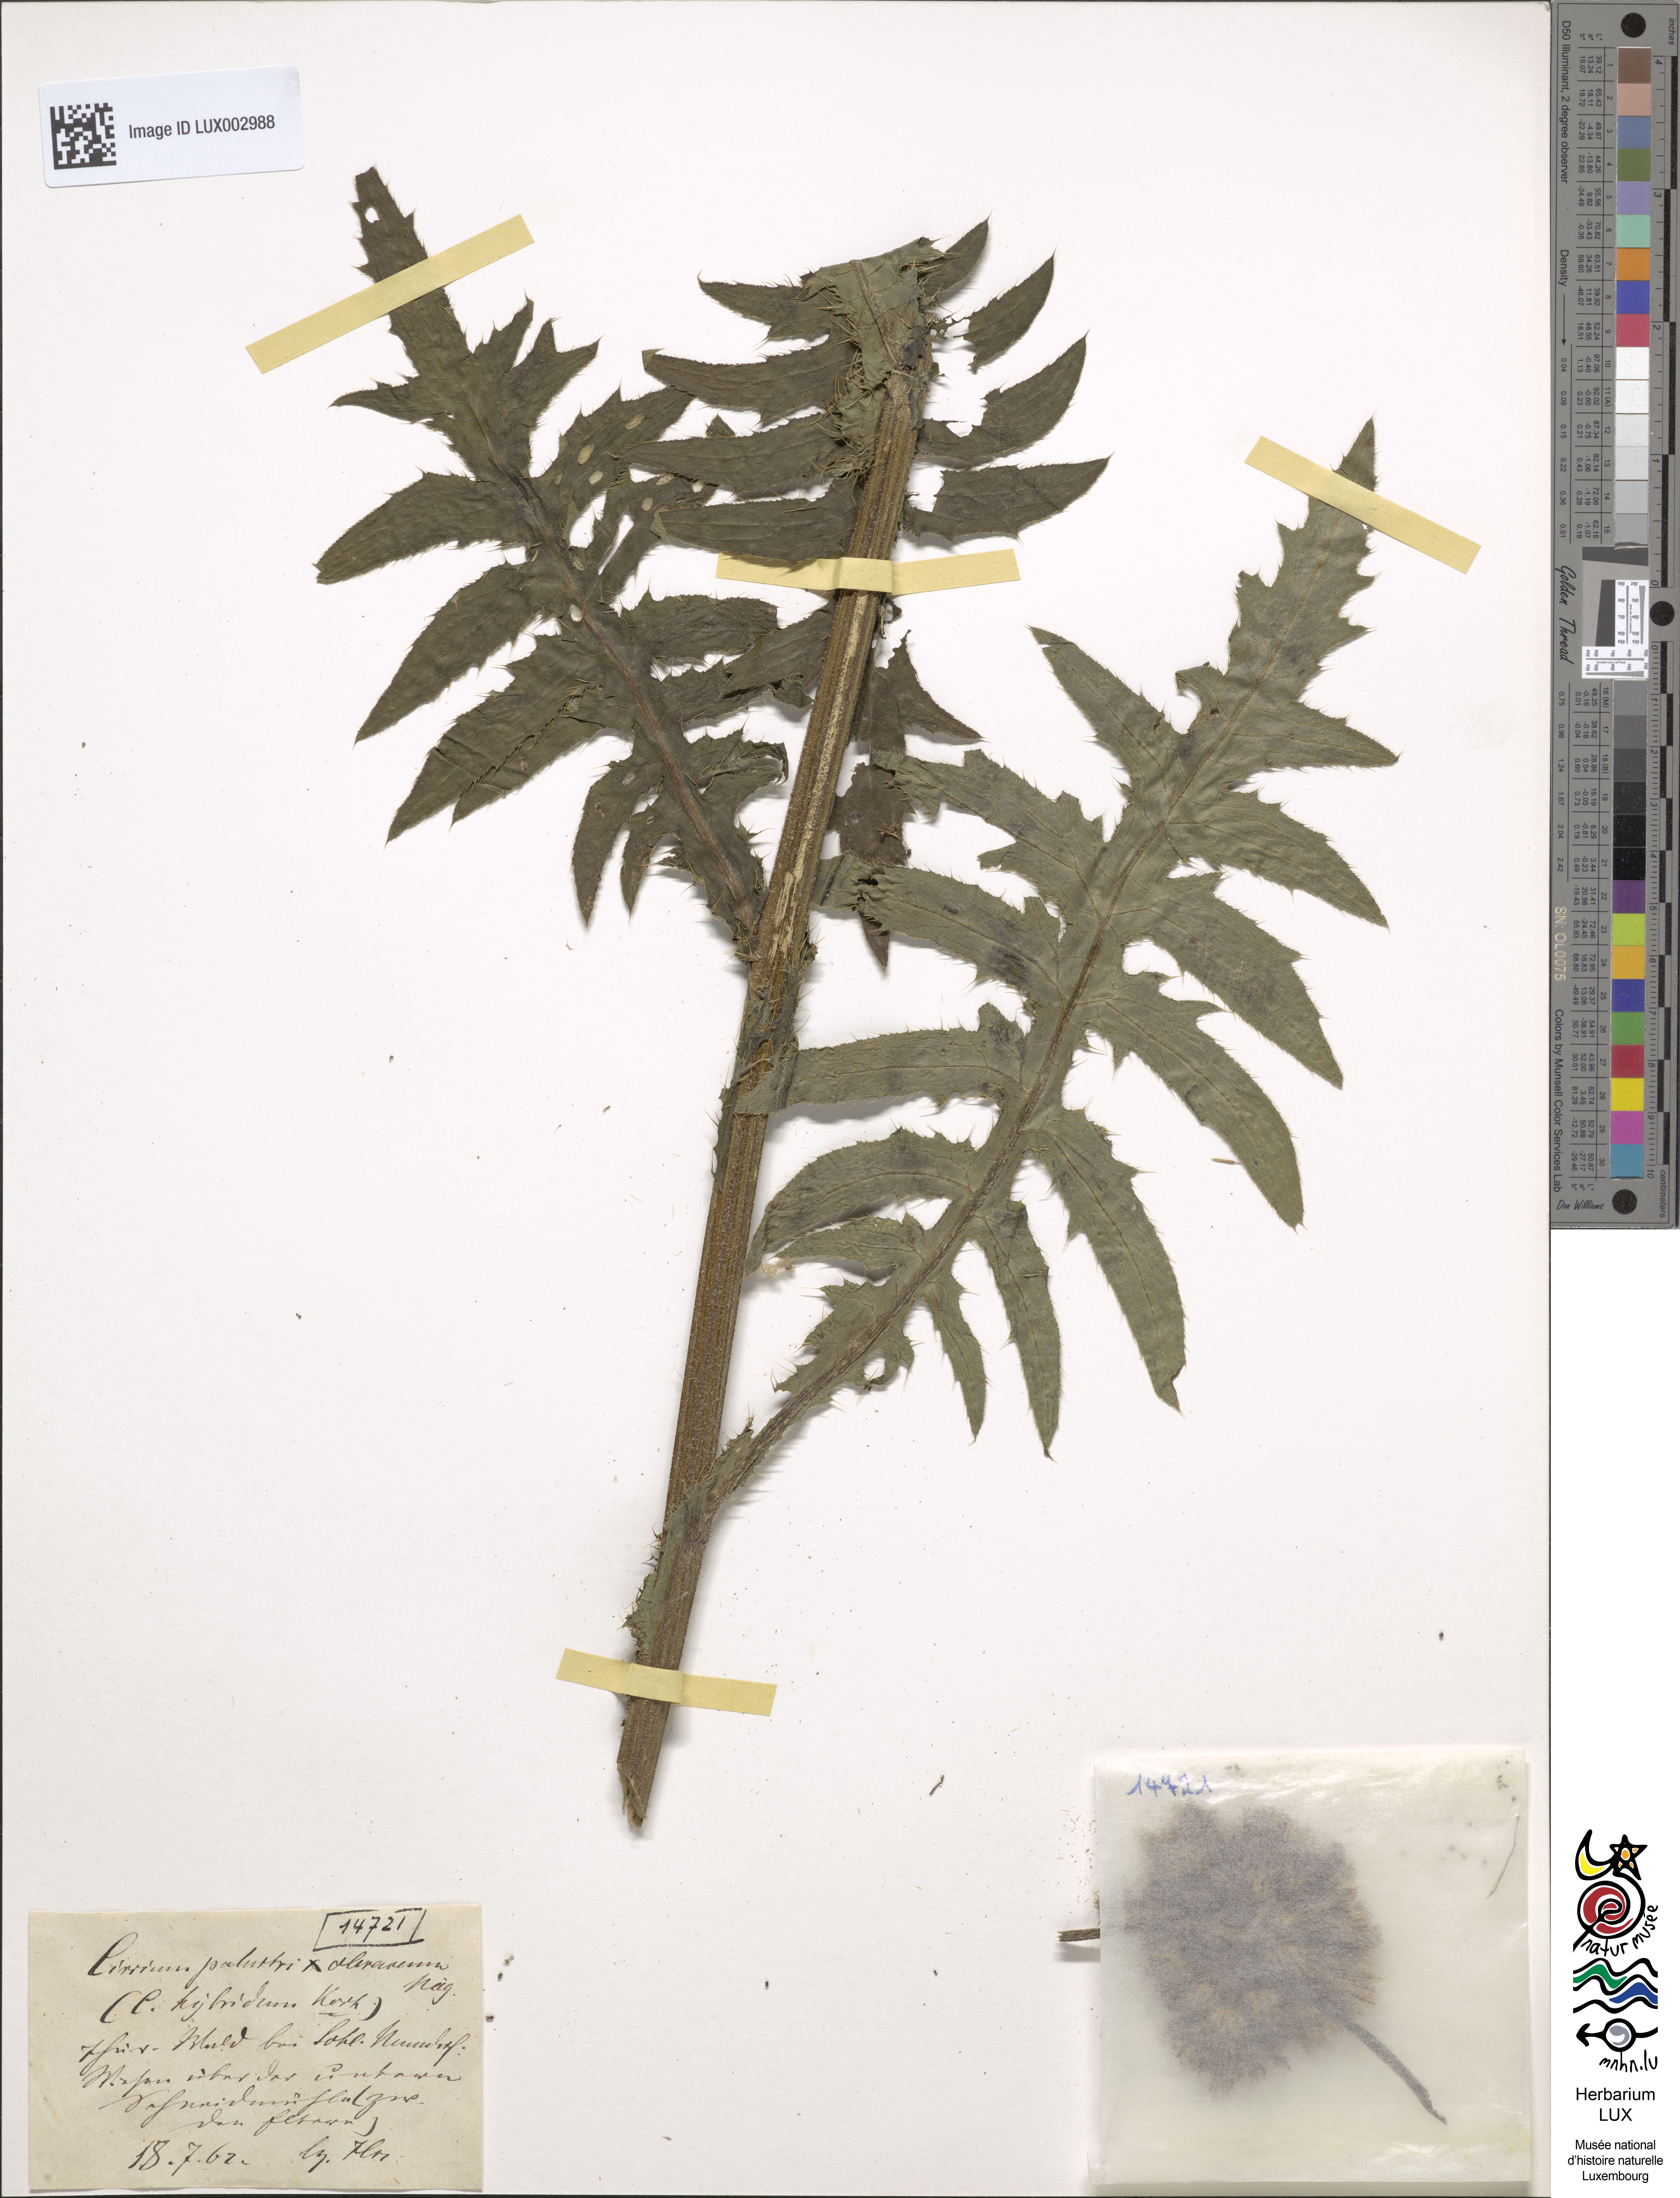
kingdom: Plantae
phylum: Tracheophyta
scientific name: Tracheophyta
